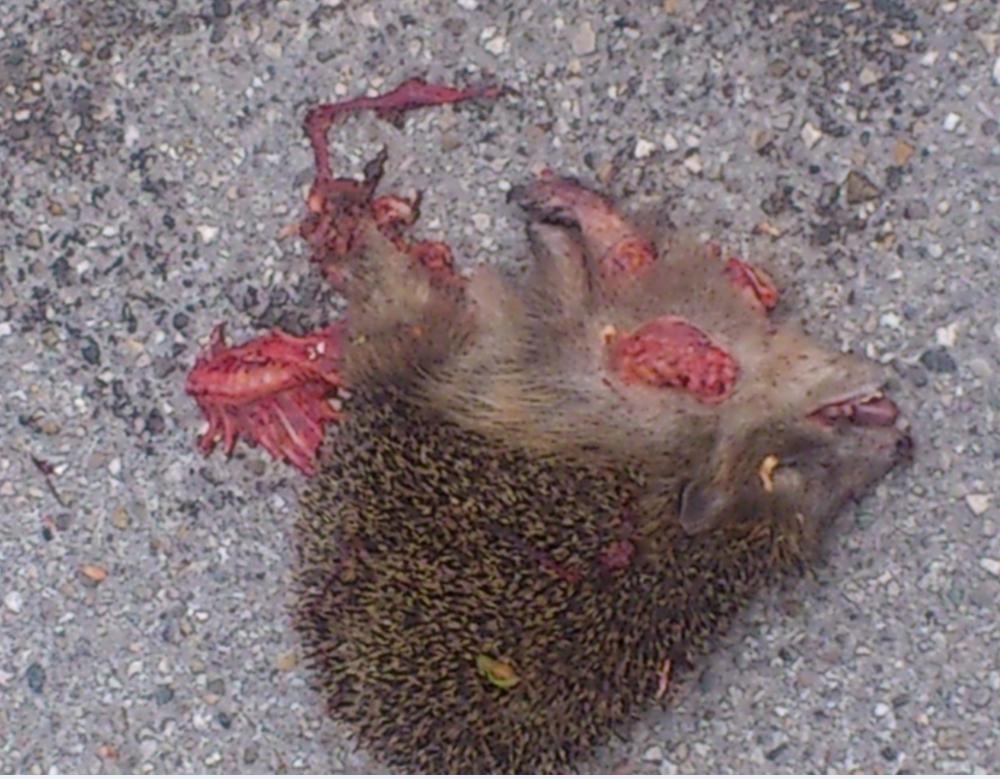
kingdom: Animalia
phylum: Chordata
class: Mammalia
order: Erinaceomorpha
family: Erinaceidae
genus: Erinaceus
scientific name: Erinaceus
